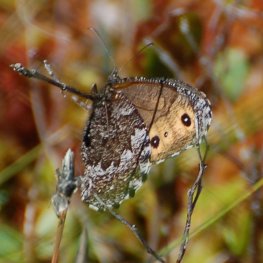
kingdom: Animalia
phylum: Arthropoda
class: Insecta
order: Lepidoptera
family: Nymphalidae
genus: Oeneis
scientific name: Oeneis jutta
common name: Jutta Arctic
